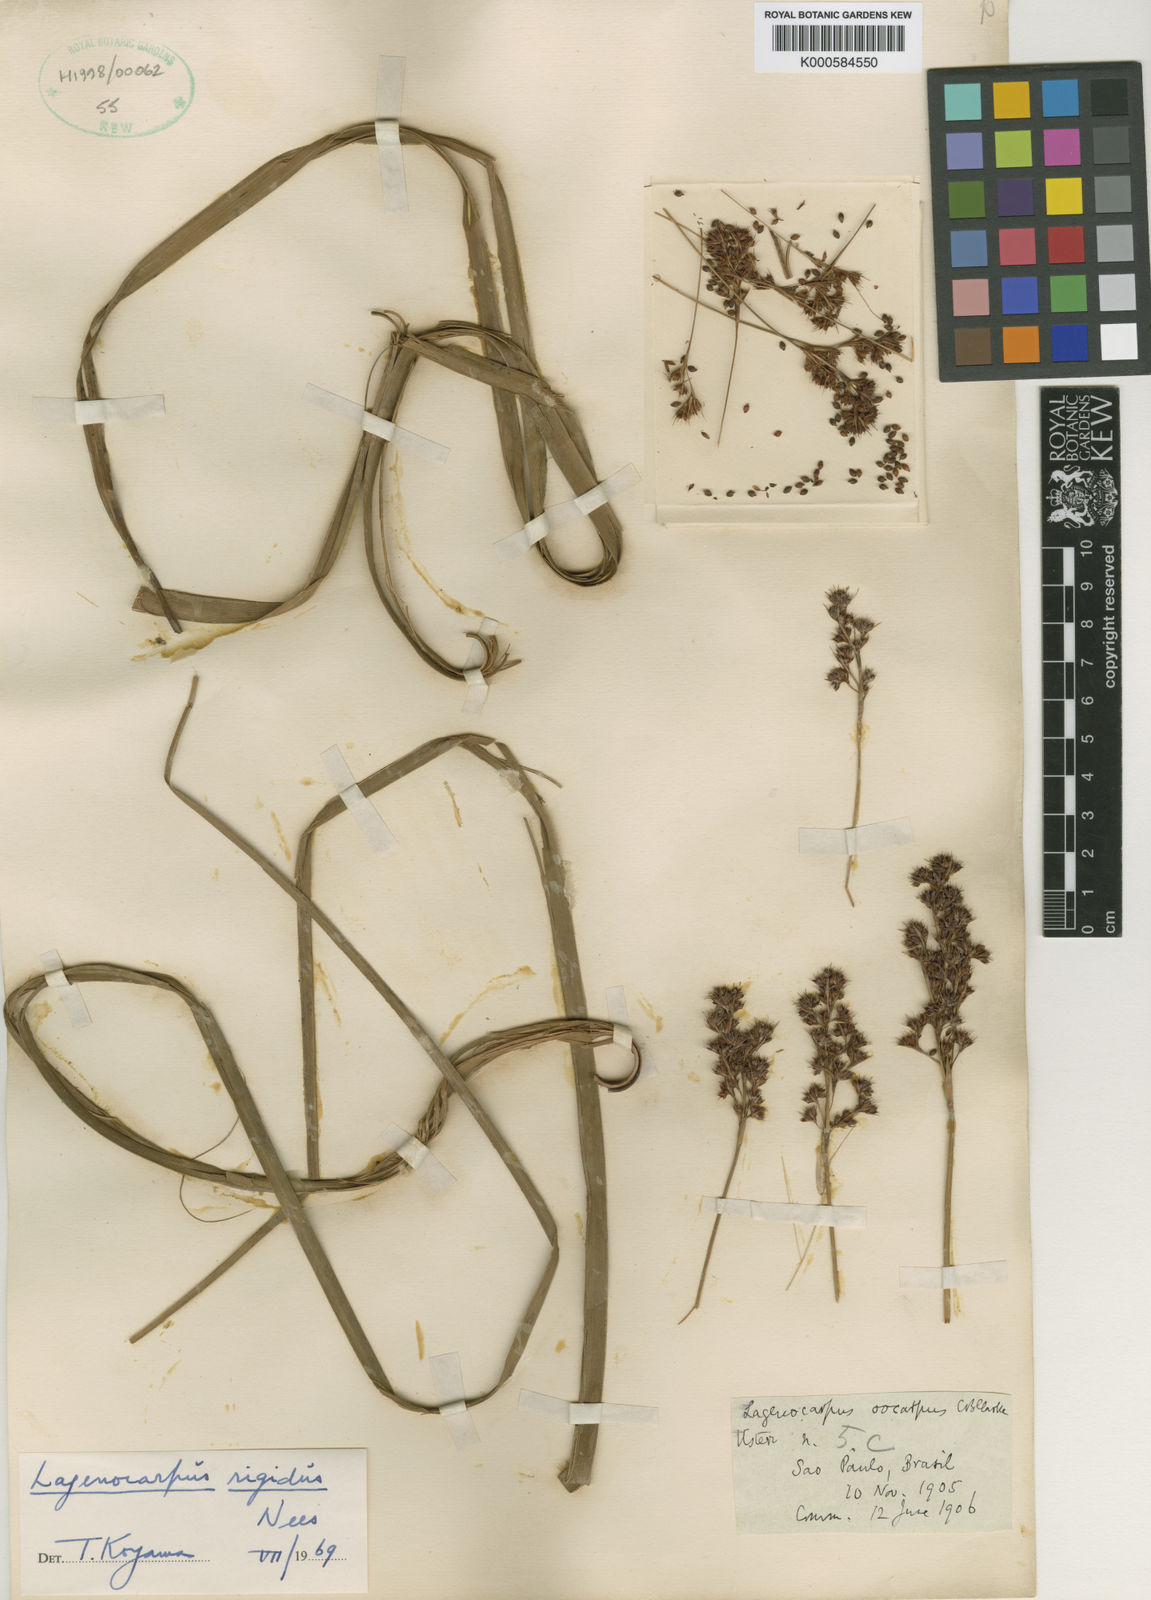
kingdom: Plantae
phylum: Tracheophyta
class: Liliopsida
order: Poales
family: Cyperaceae
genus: Lagenocarpus
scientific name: Lagenocarpus rigidus
